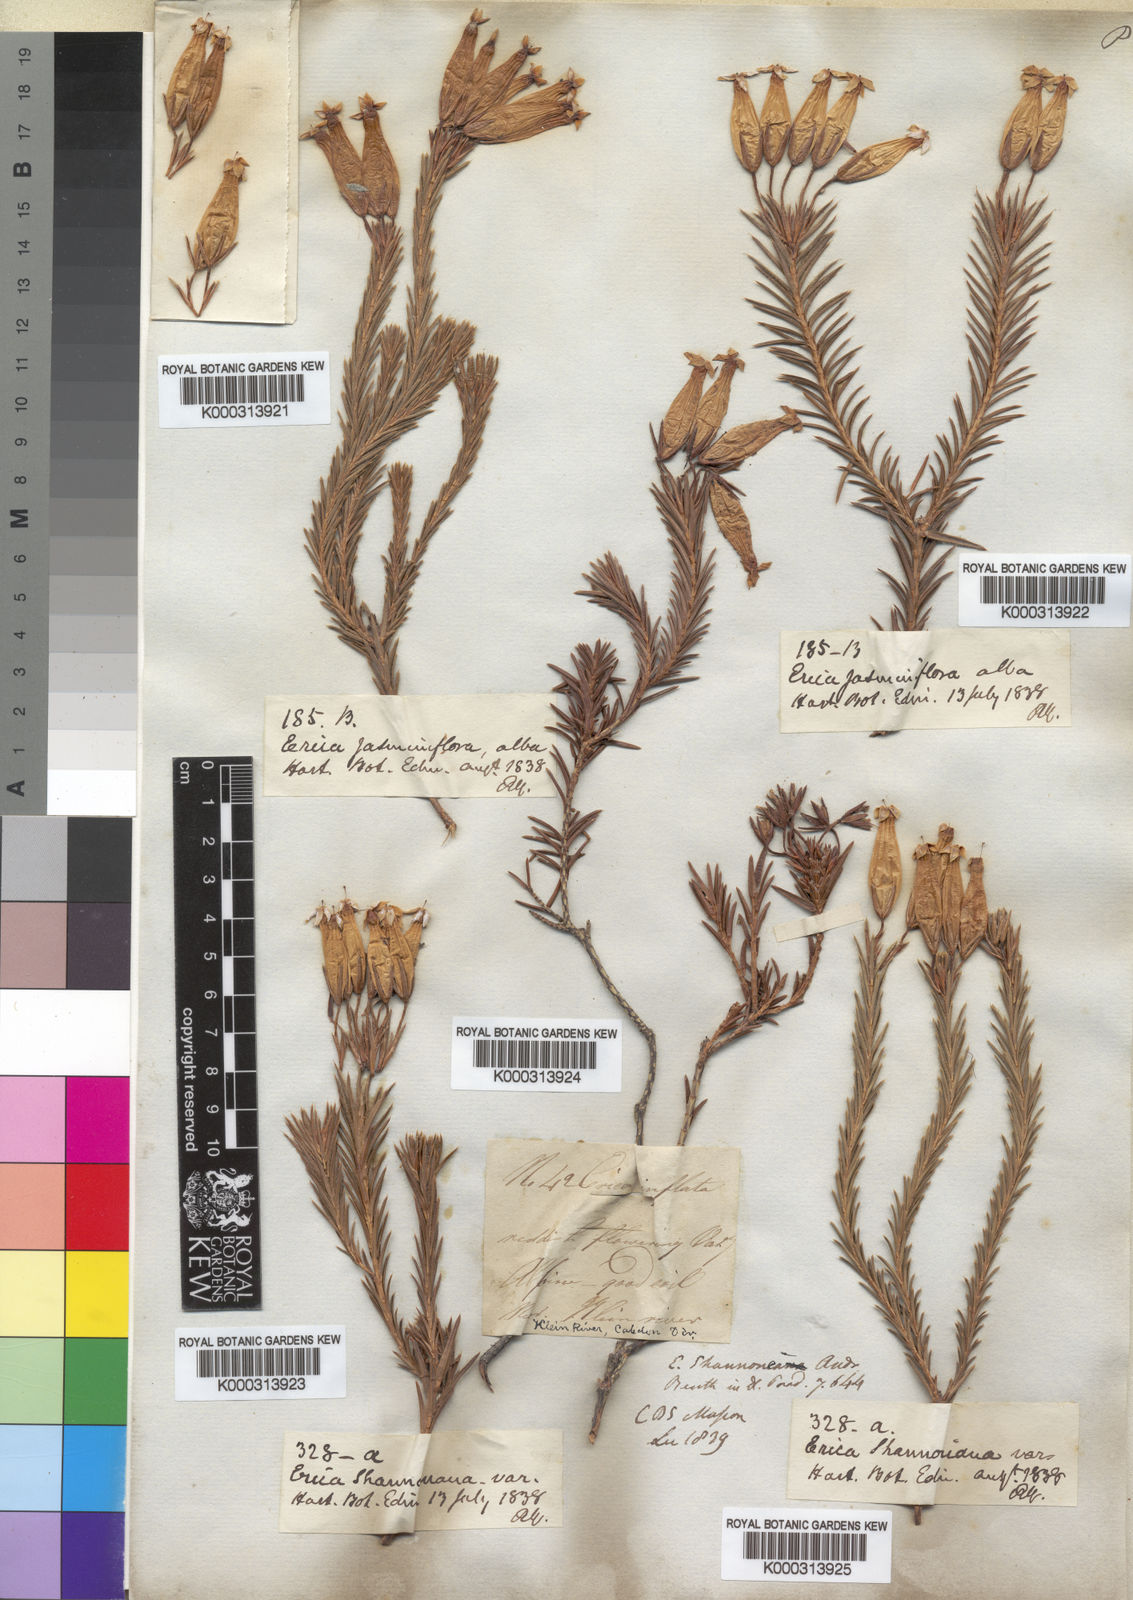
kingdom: Plantae
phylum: Tracheophyta
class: Magnoliopsida
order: Ericales
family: Ericaceae
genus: Erica
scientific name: Erica shannonea
